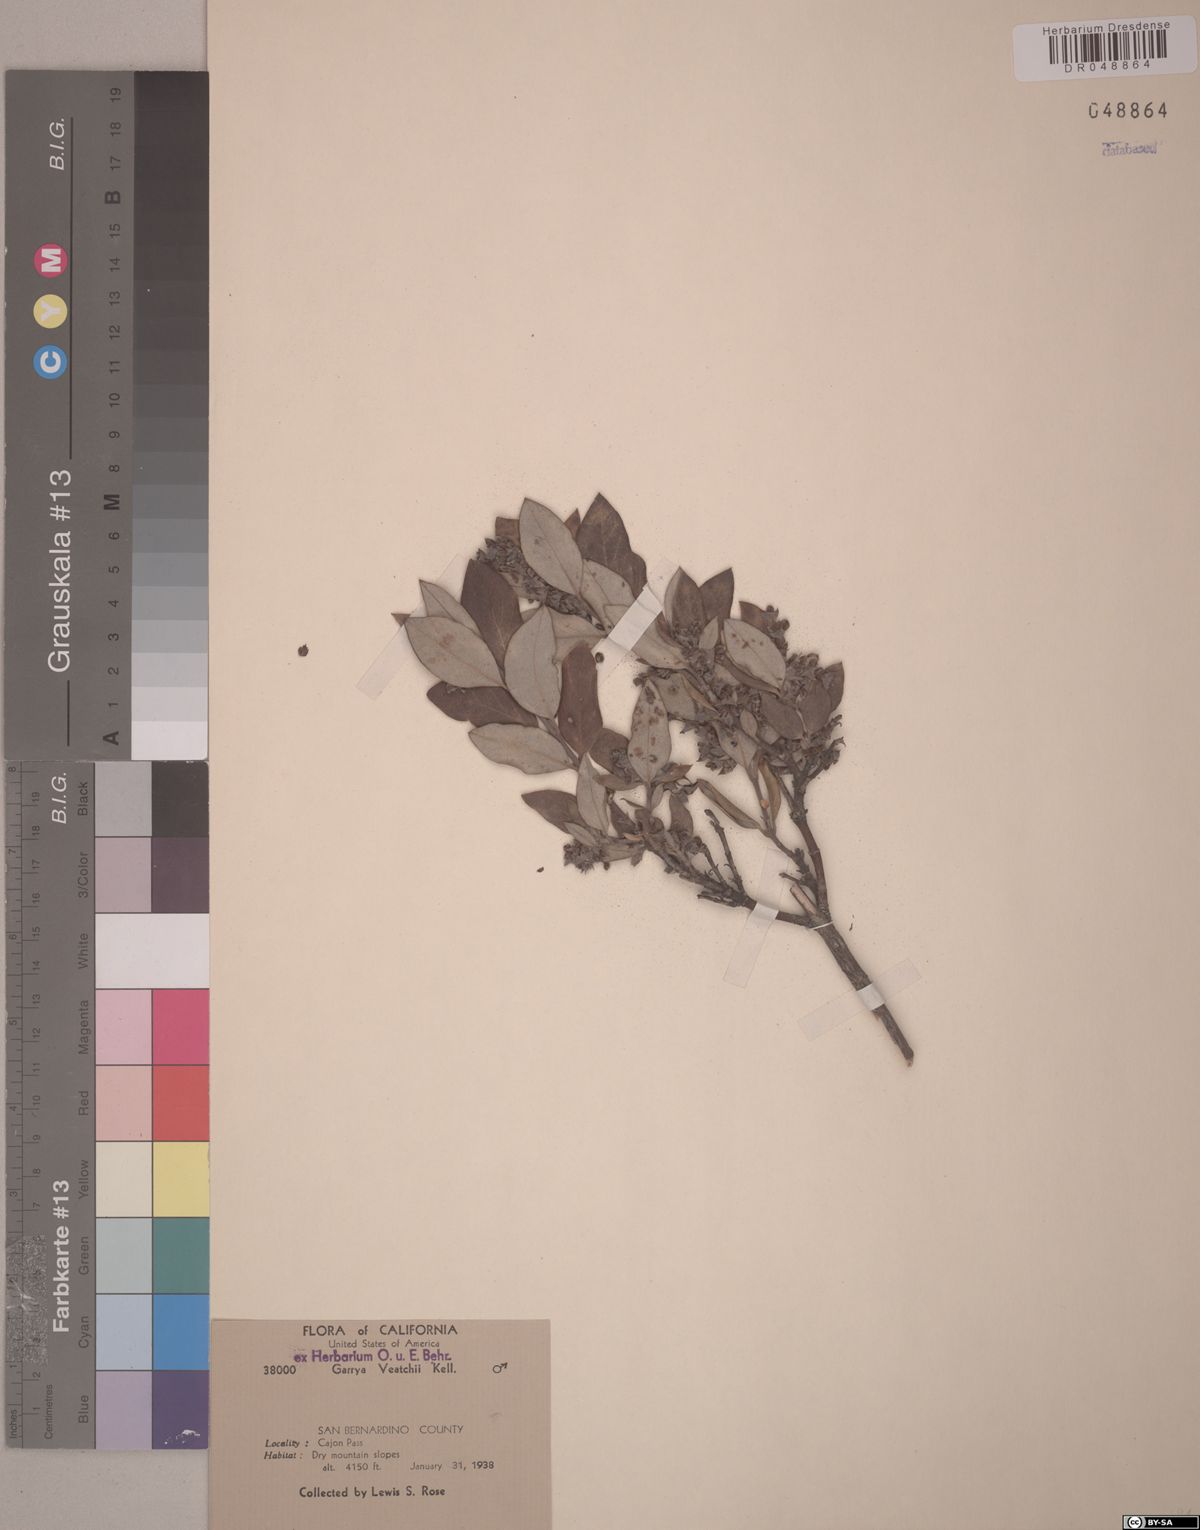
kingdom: Plantae
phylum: Tracheophyta
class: Magnoliopsida
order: Garryales
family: Garryaceae
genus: Garrya
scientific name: Garrya veatchii
